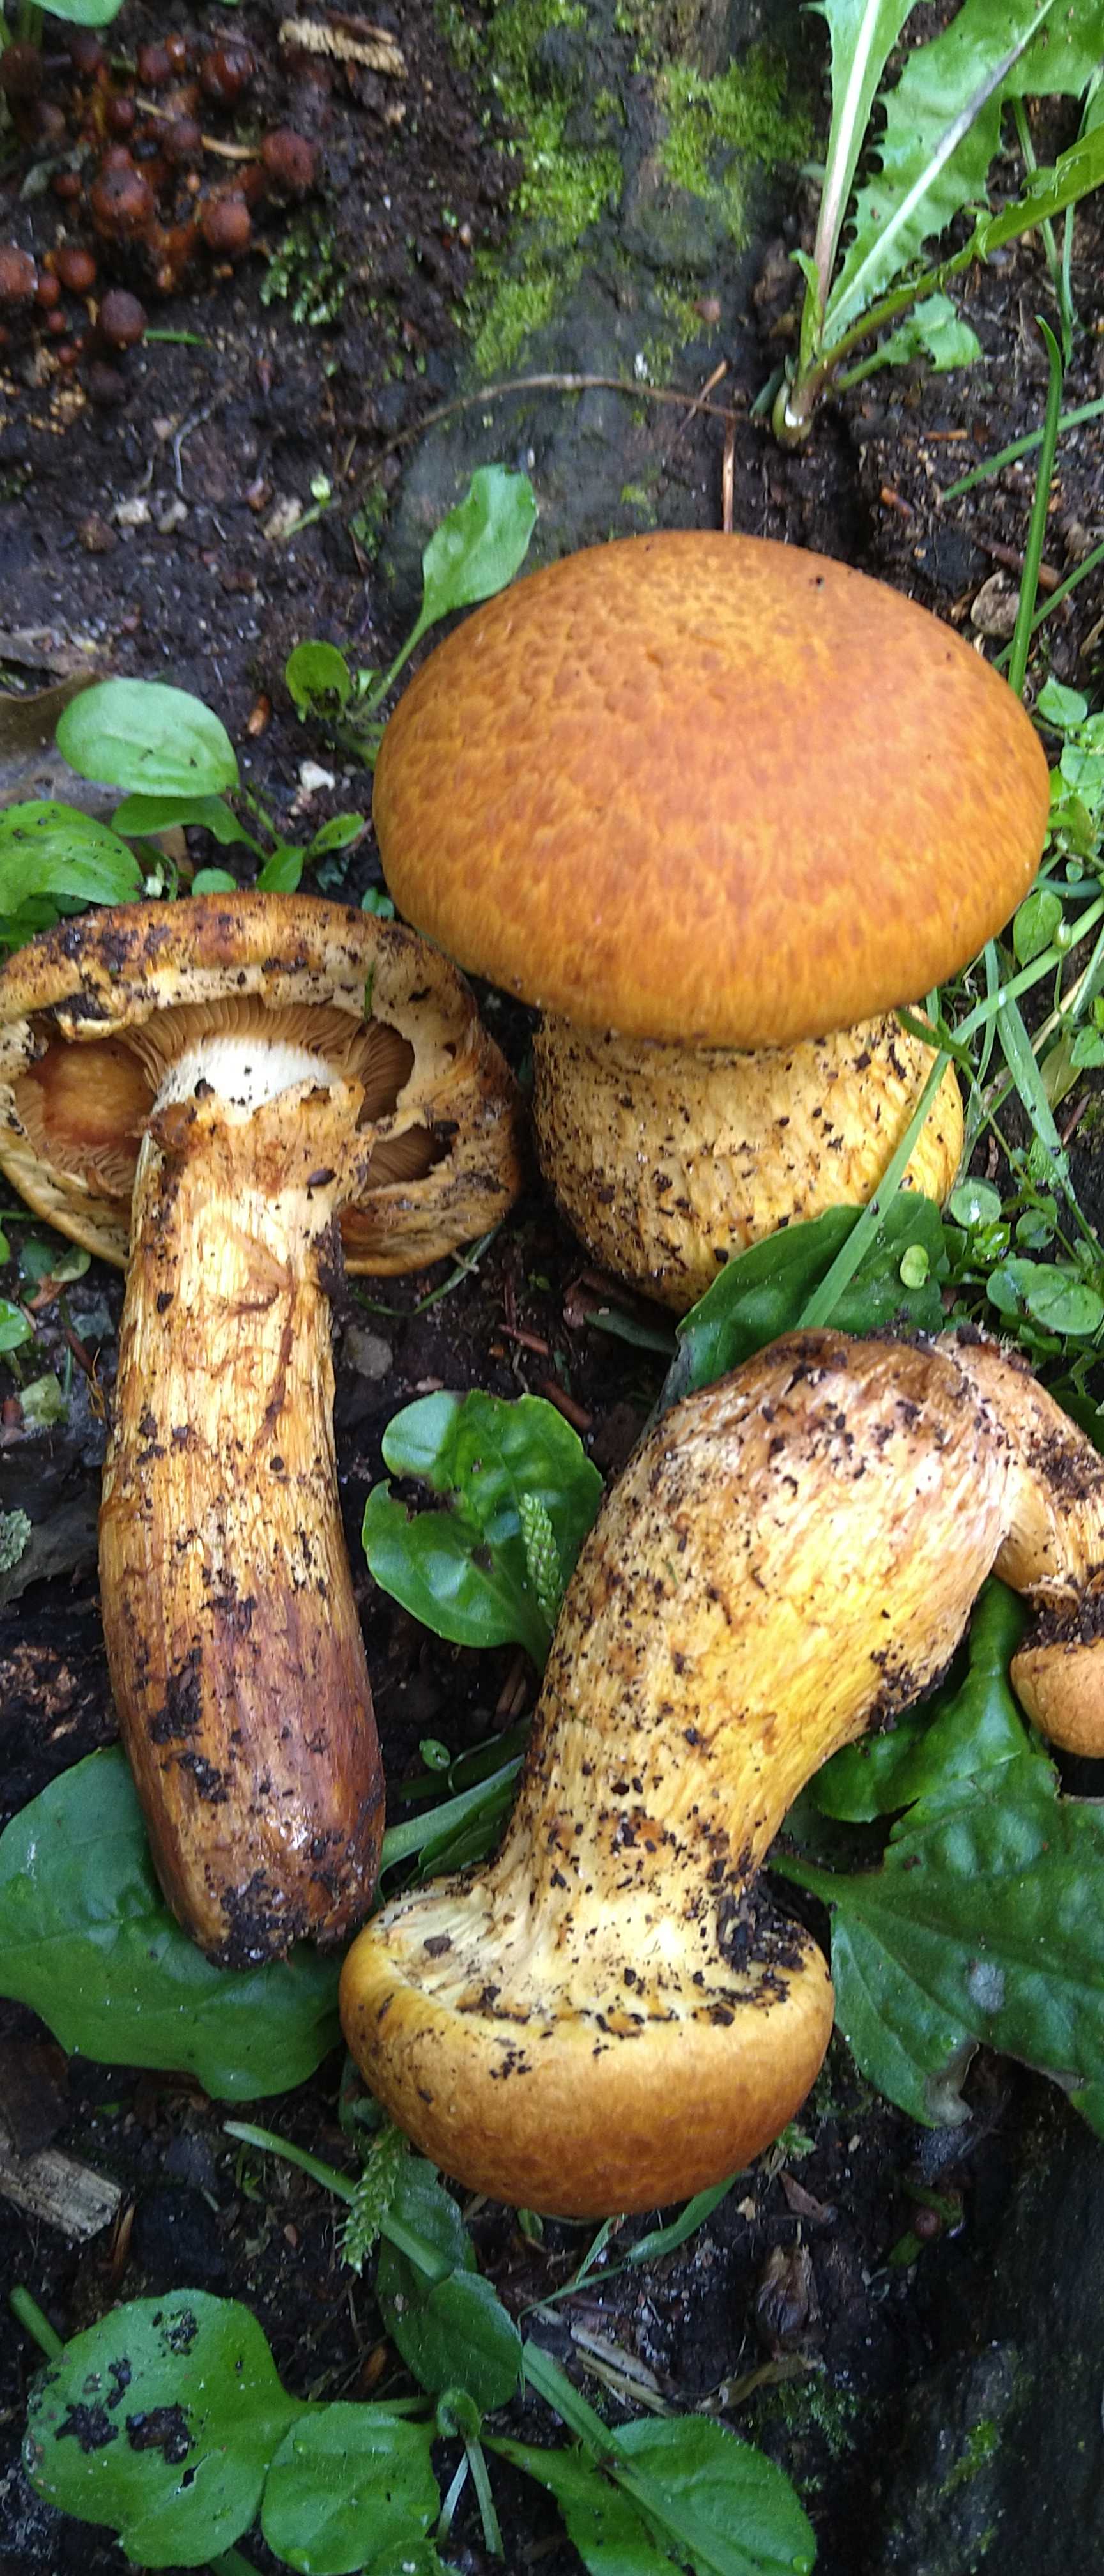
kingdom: Fungi
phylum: Basidiomycota
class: Agaricomycetes
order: Agaricales
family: Hymenogastraceae
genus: Gymnopilus
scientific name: Gymnopilus spectabilis
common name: fibret flammehat
